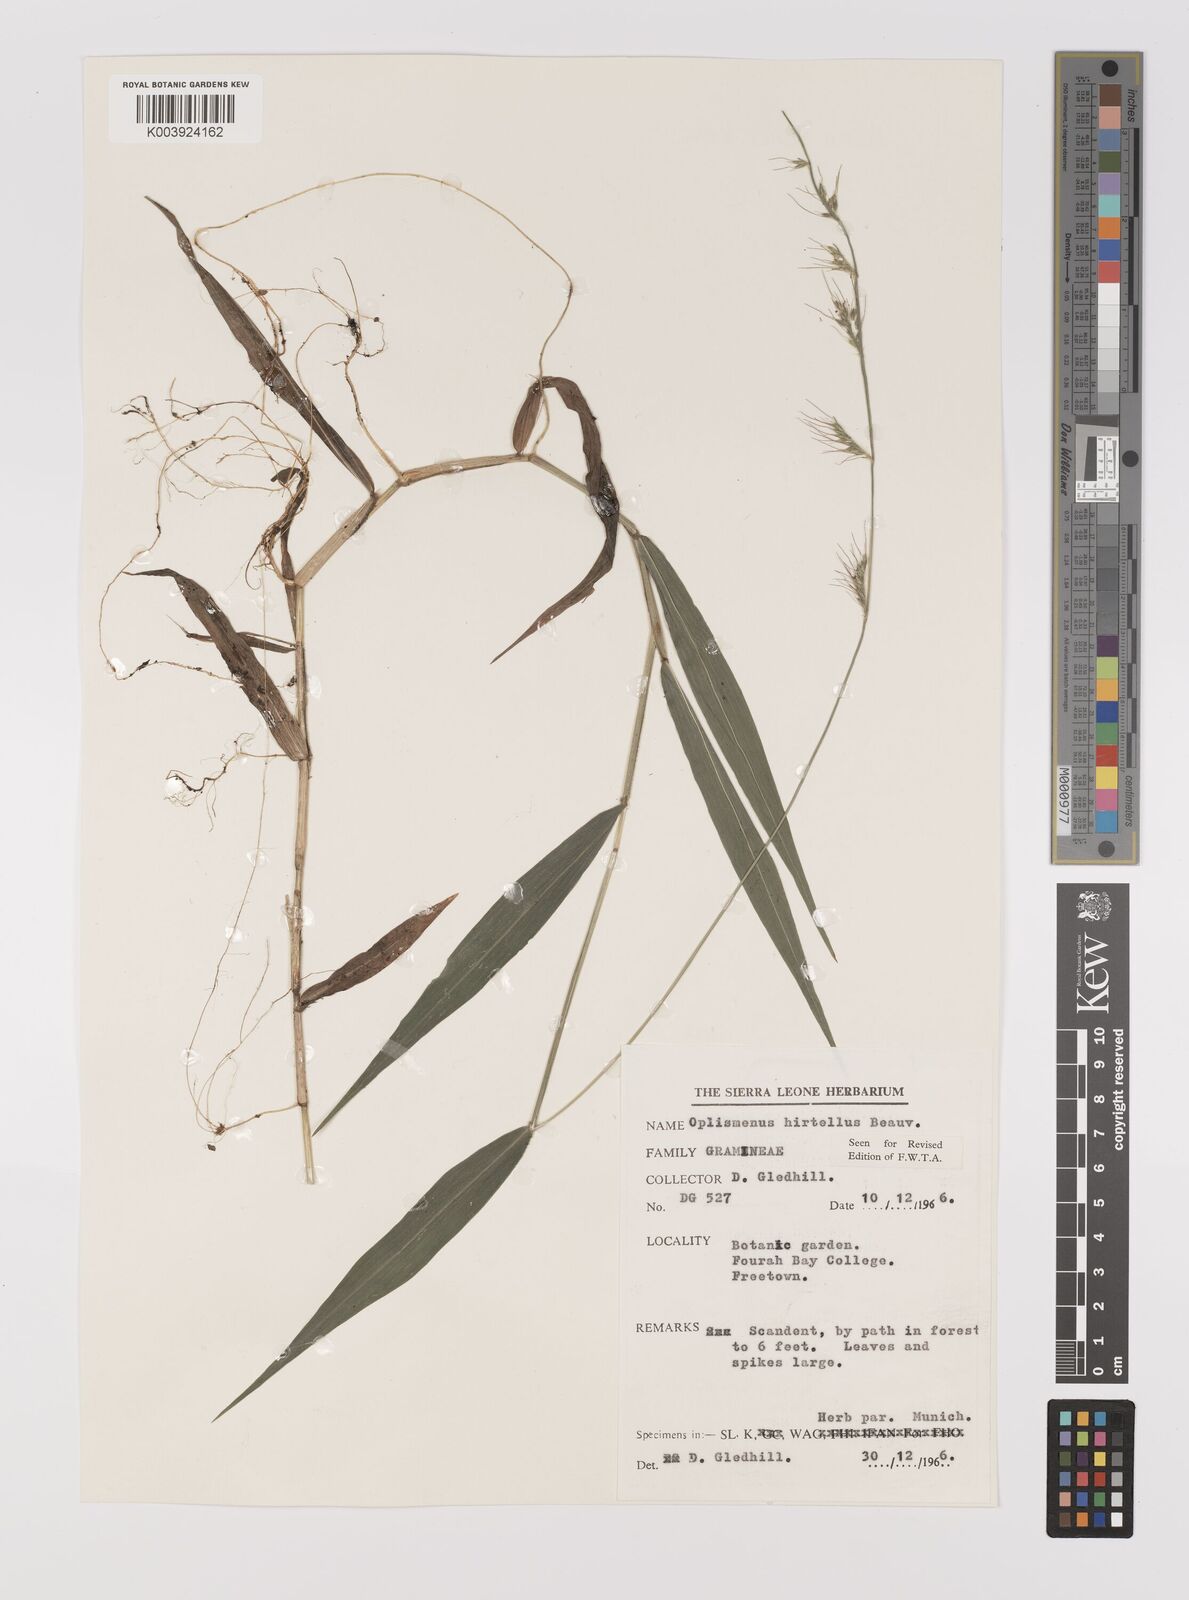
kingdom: Plantae
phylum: Tracheophyta
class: Liliopsida
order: Poales
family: Poaceae
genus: Oplismenus
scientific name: Oplismenus hirtellus
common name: Basketgrass
